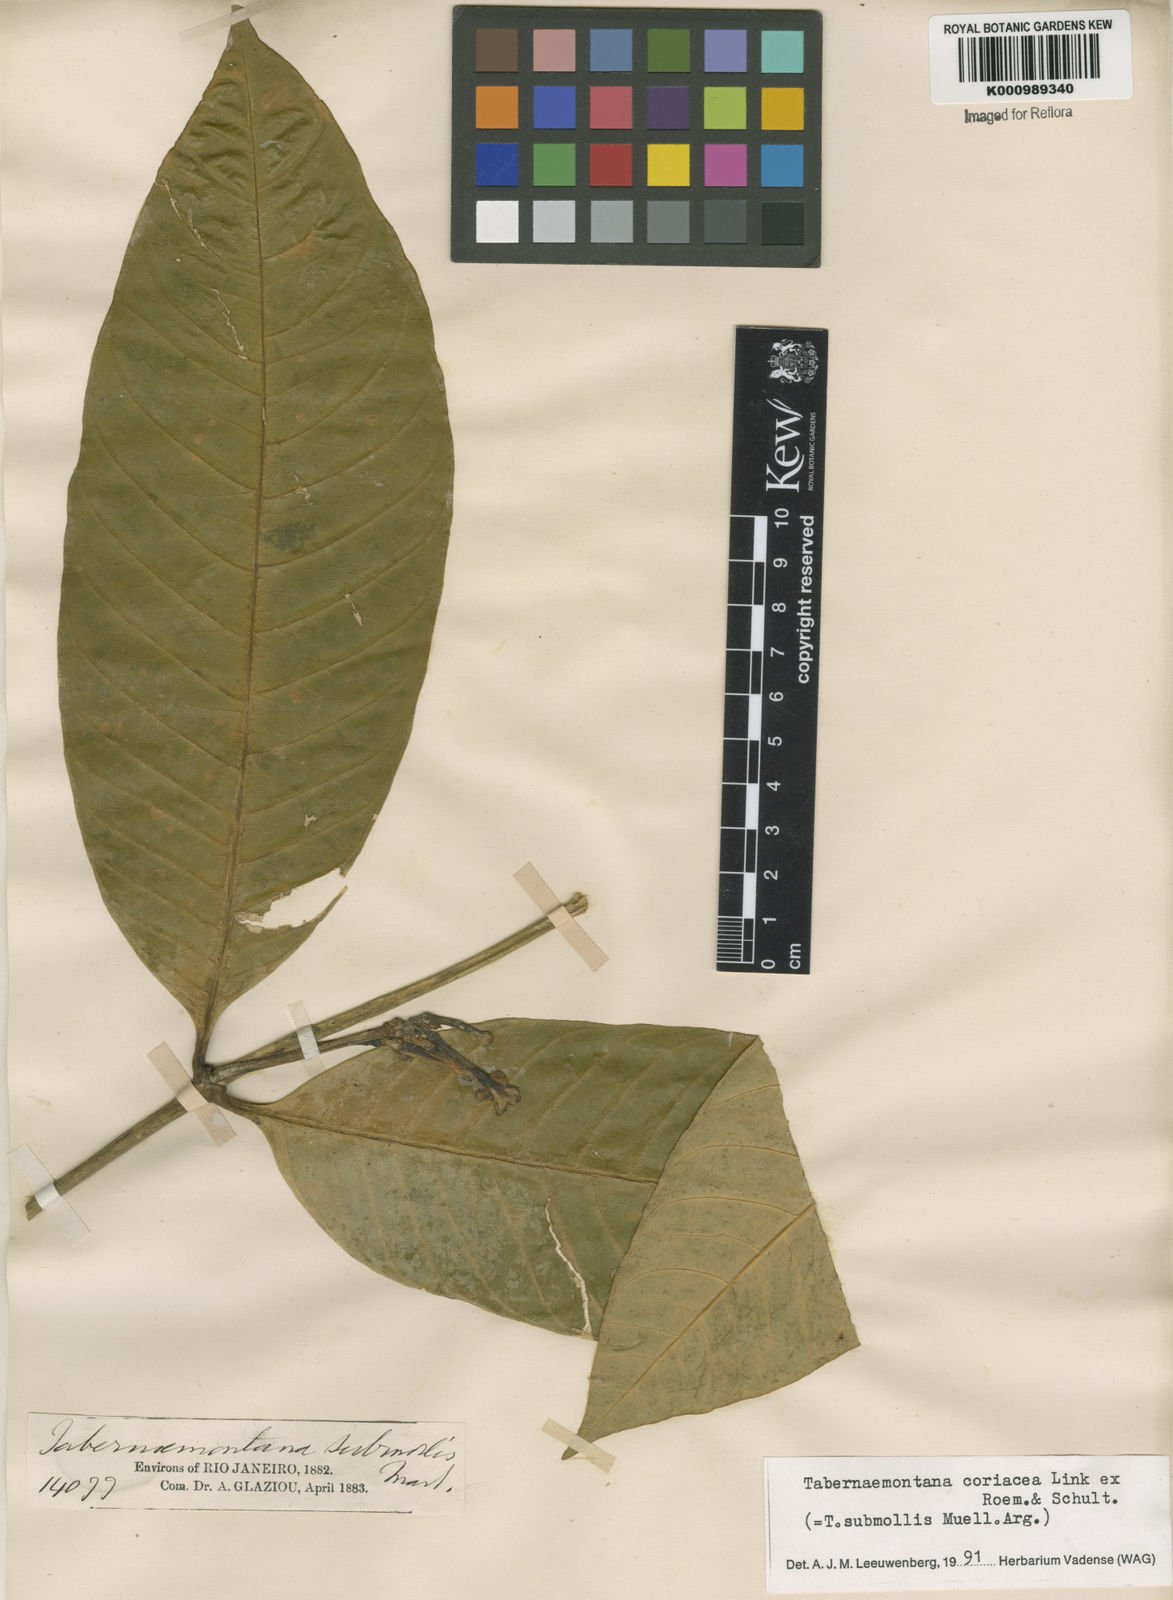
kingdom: Plantae
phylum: Tracheophyta
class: Magnoliopsida
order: Gentianales
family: Apocynaceae
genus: Tabernaemontana
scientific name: Tabernaemontana coriacea
